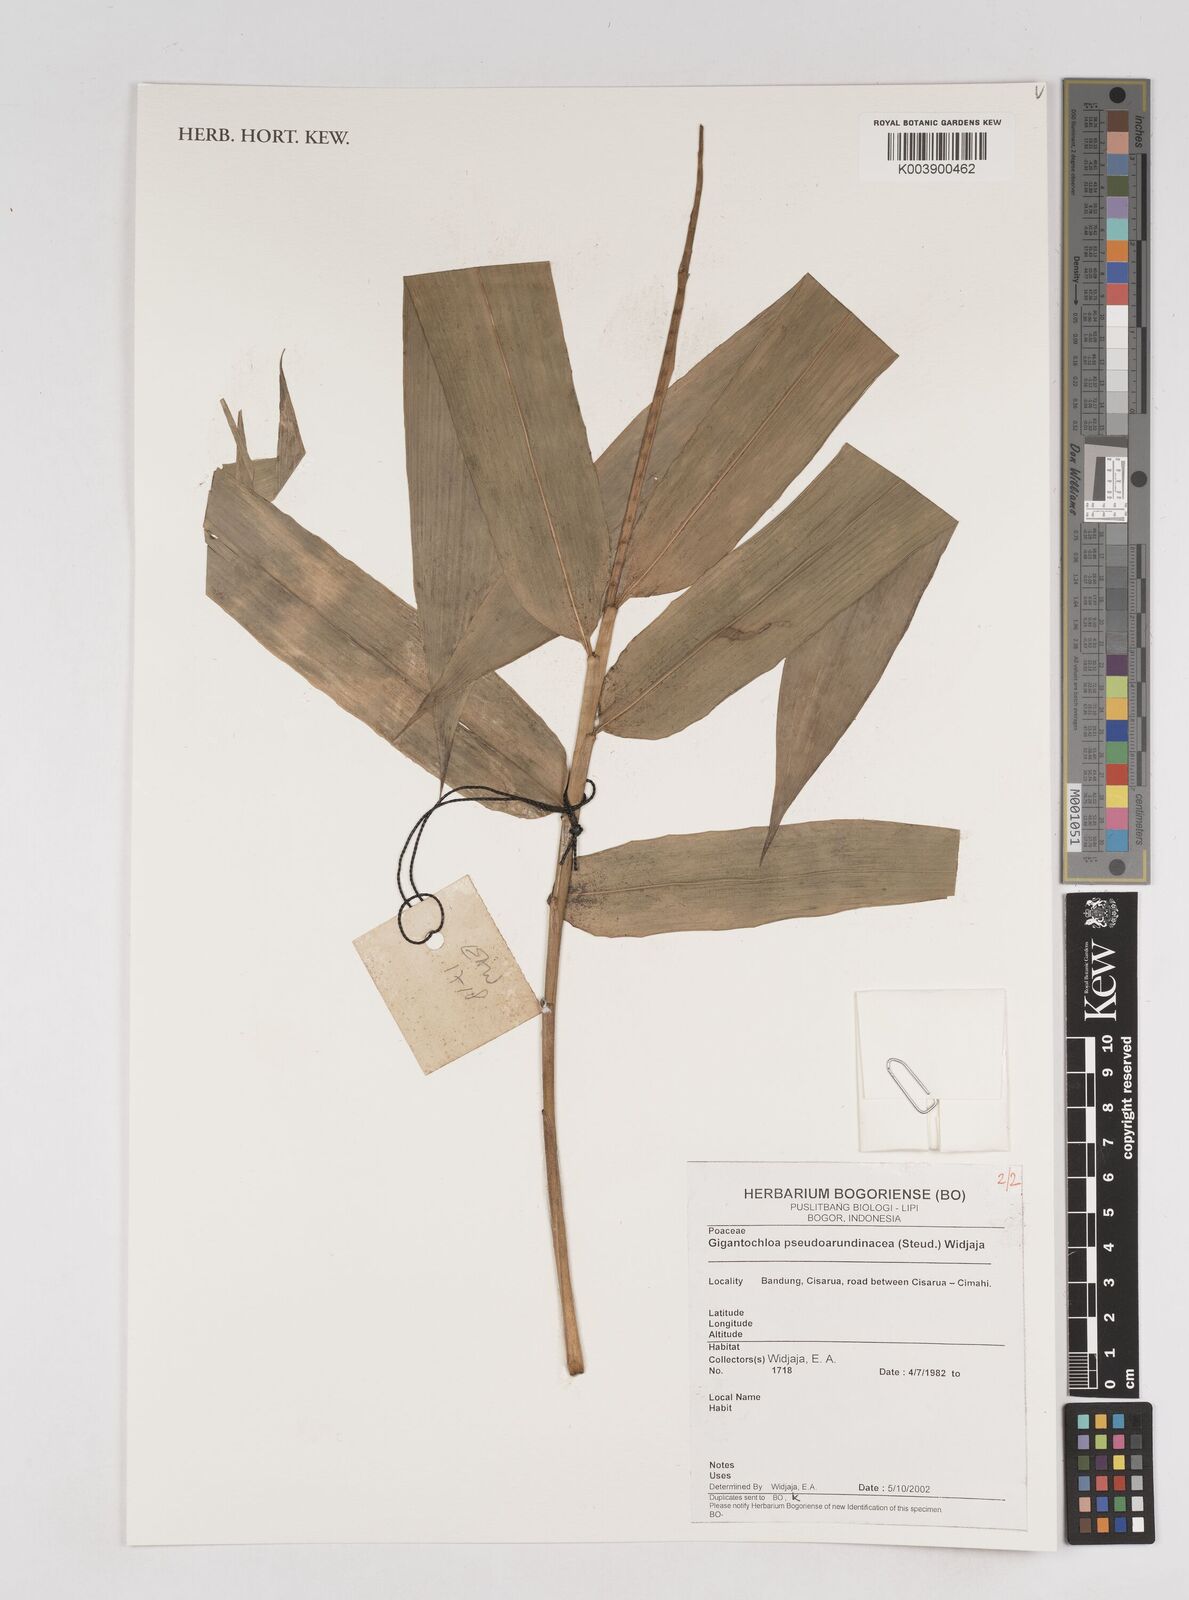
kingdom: Plantae
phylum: Tracheophyta
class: Liliopsida
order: Poales
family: Poaceae
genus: Gigantochloa
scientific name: Gigantochloa verticillata
